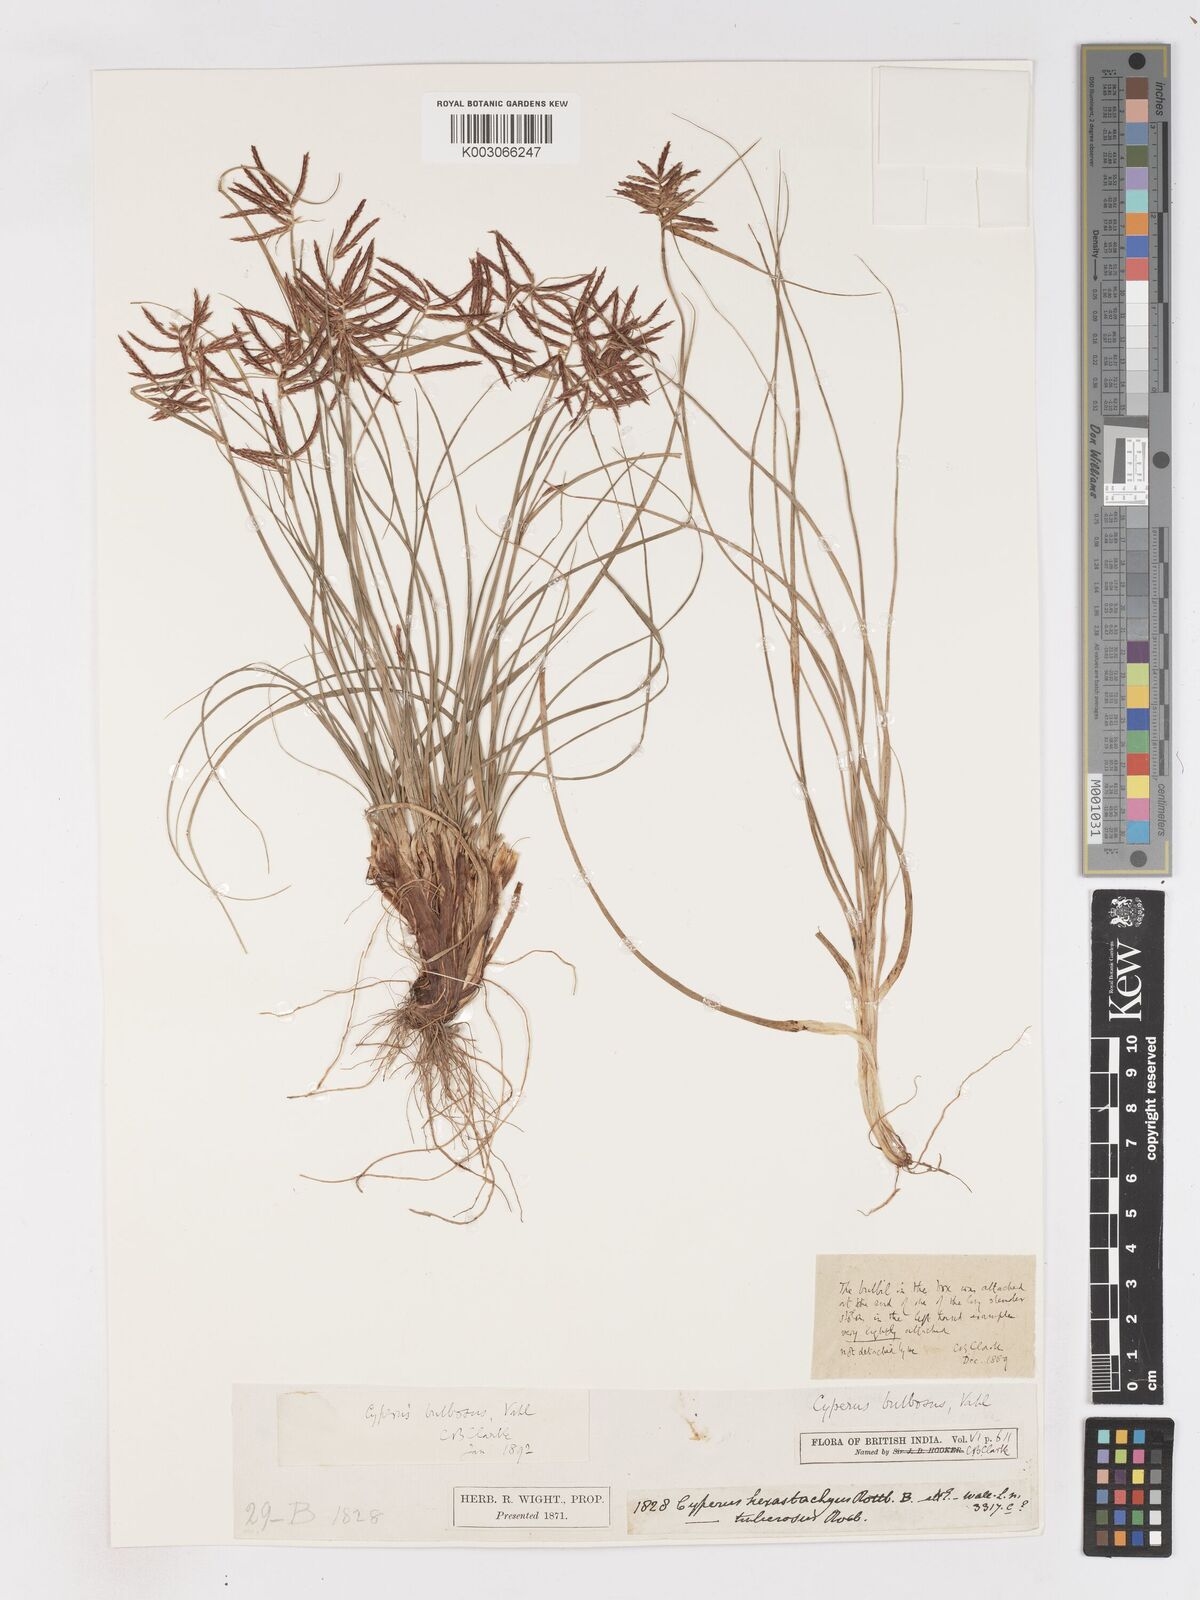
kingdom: Plantae
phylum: Tracheophyta
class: Liliopsida
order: Poales
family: Cyperaceae
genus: Cyperus
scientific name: Cyperus bulbosus
